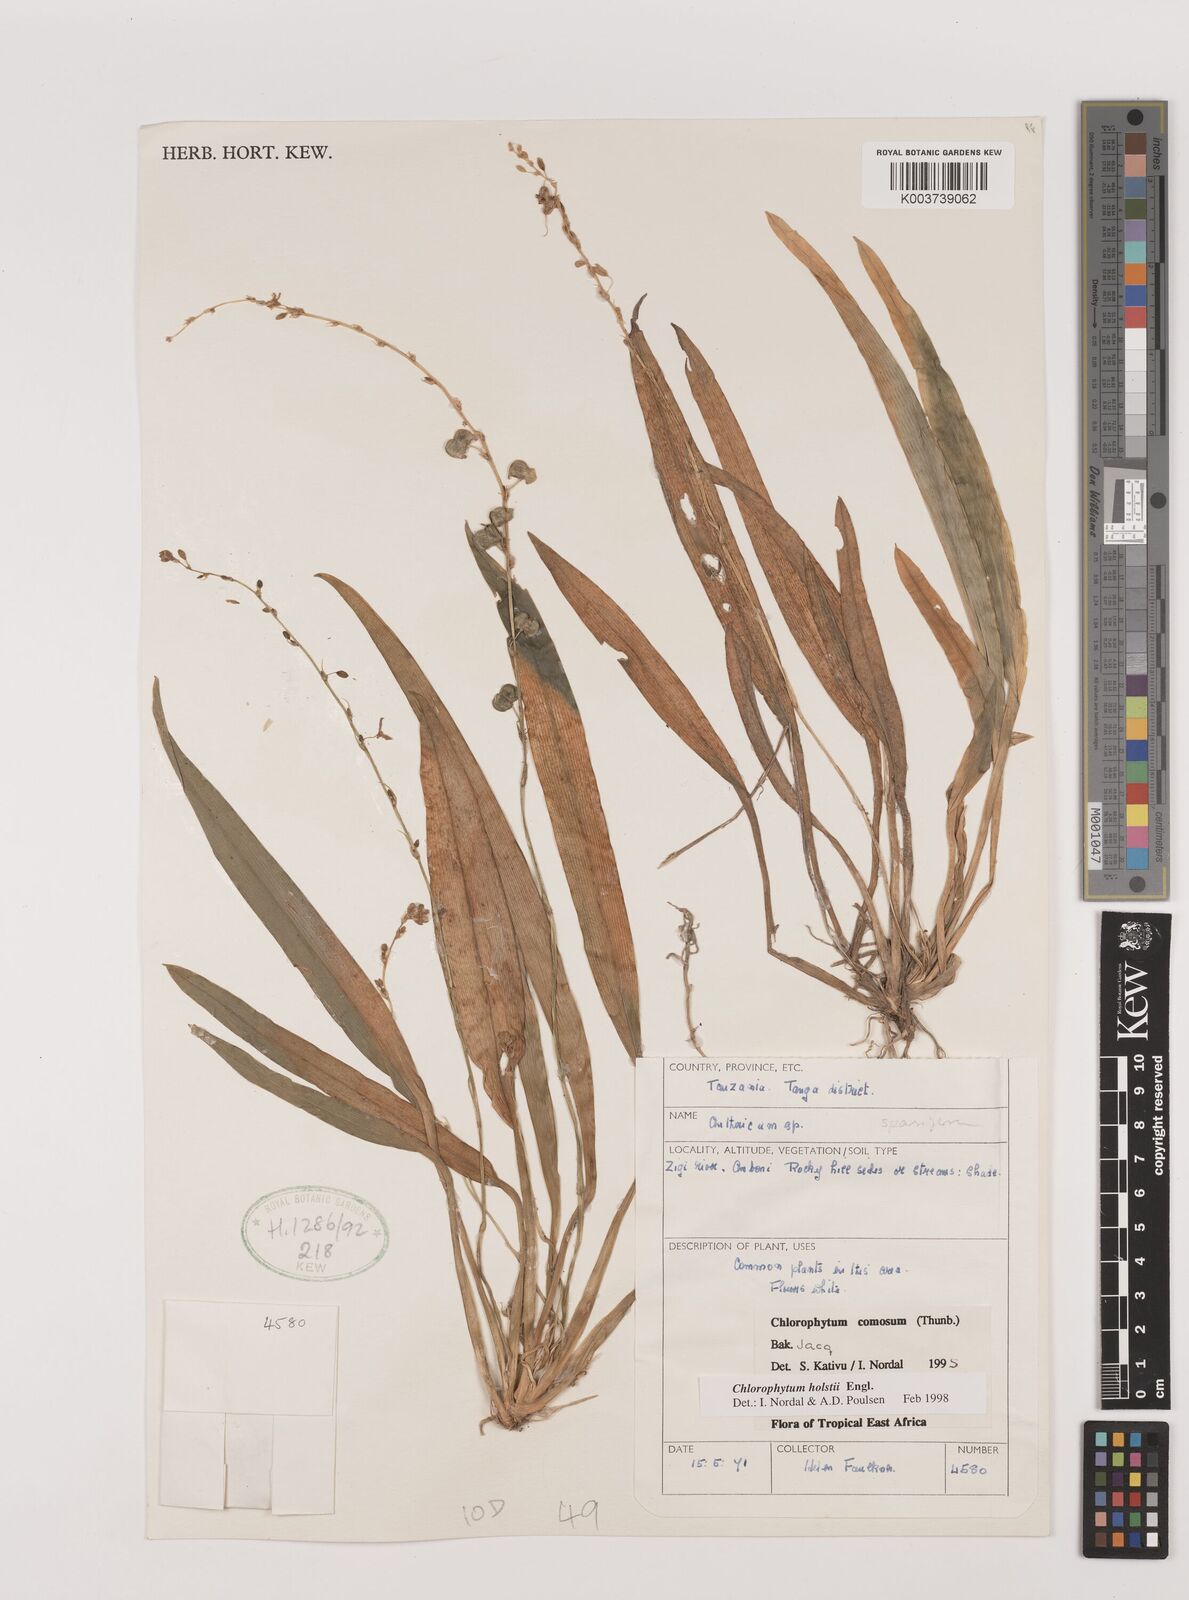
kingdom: Plantae
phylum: Tracheophyta
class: Liliopsida
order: Asparagales
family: Asparagaceae
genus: Chlorophytum
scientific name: Chlorophytum holstii
